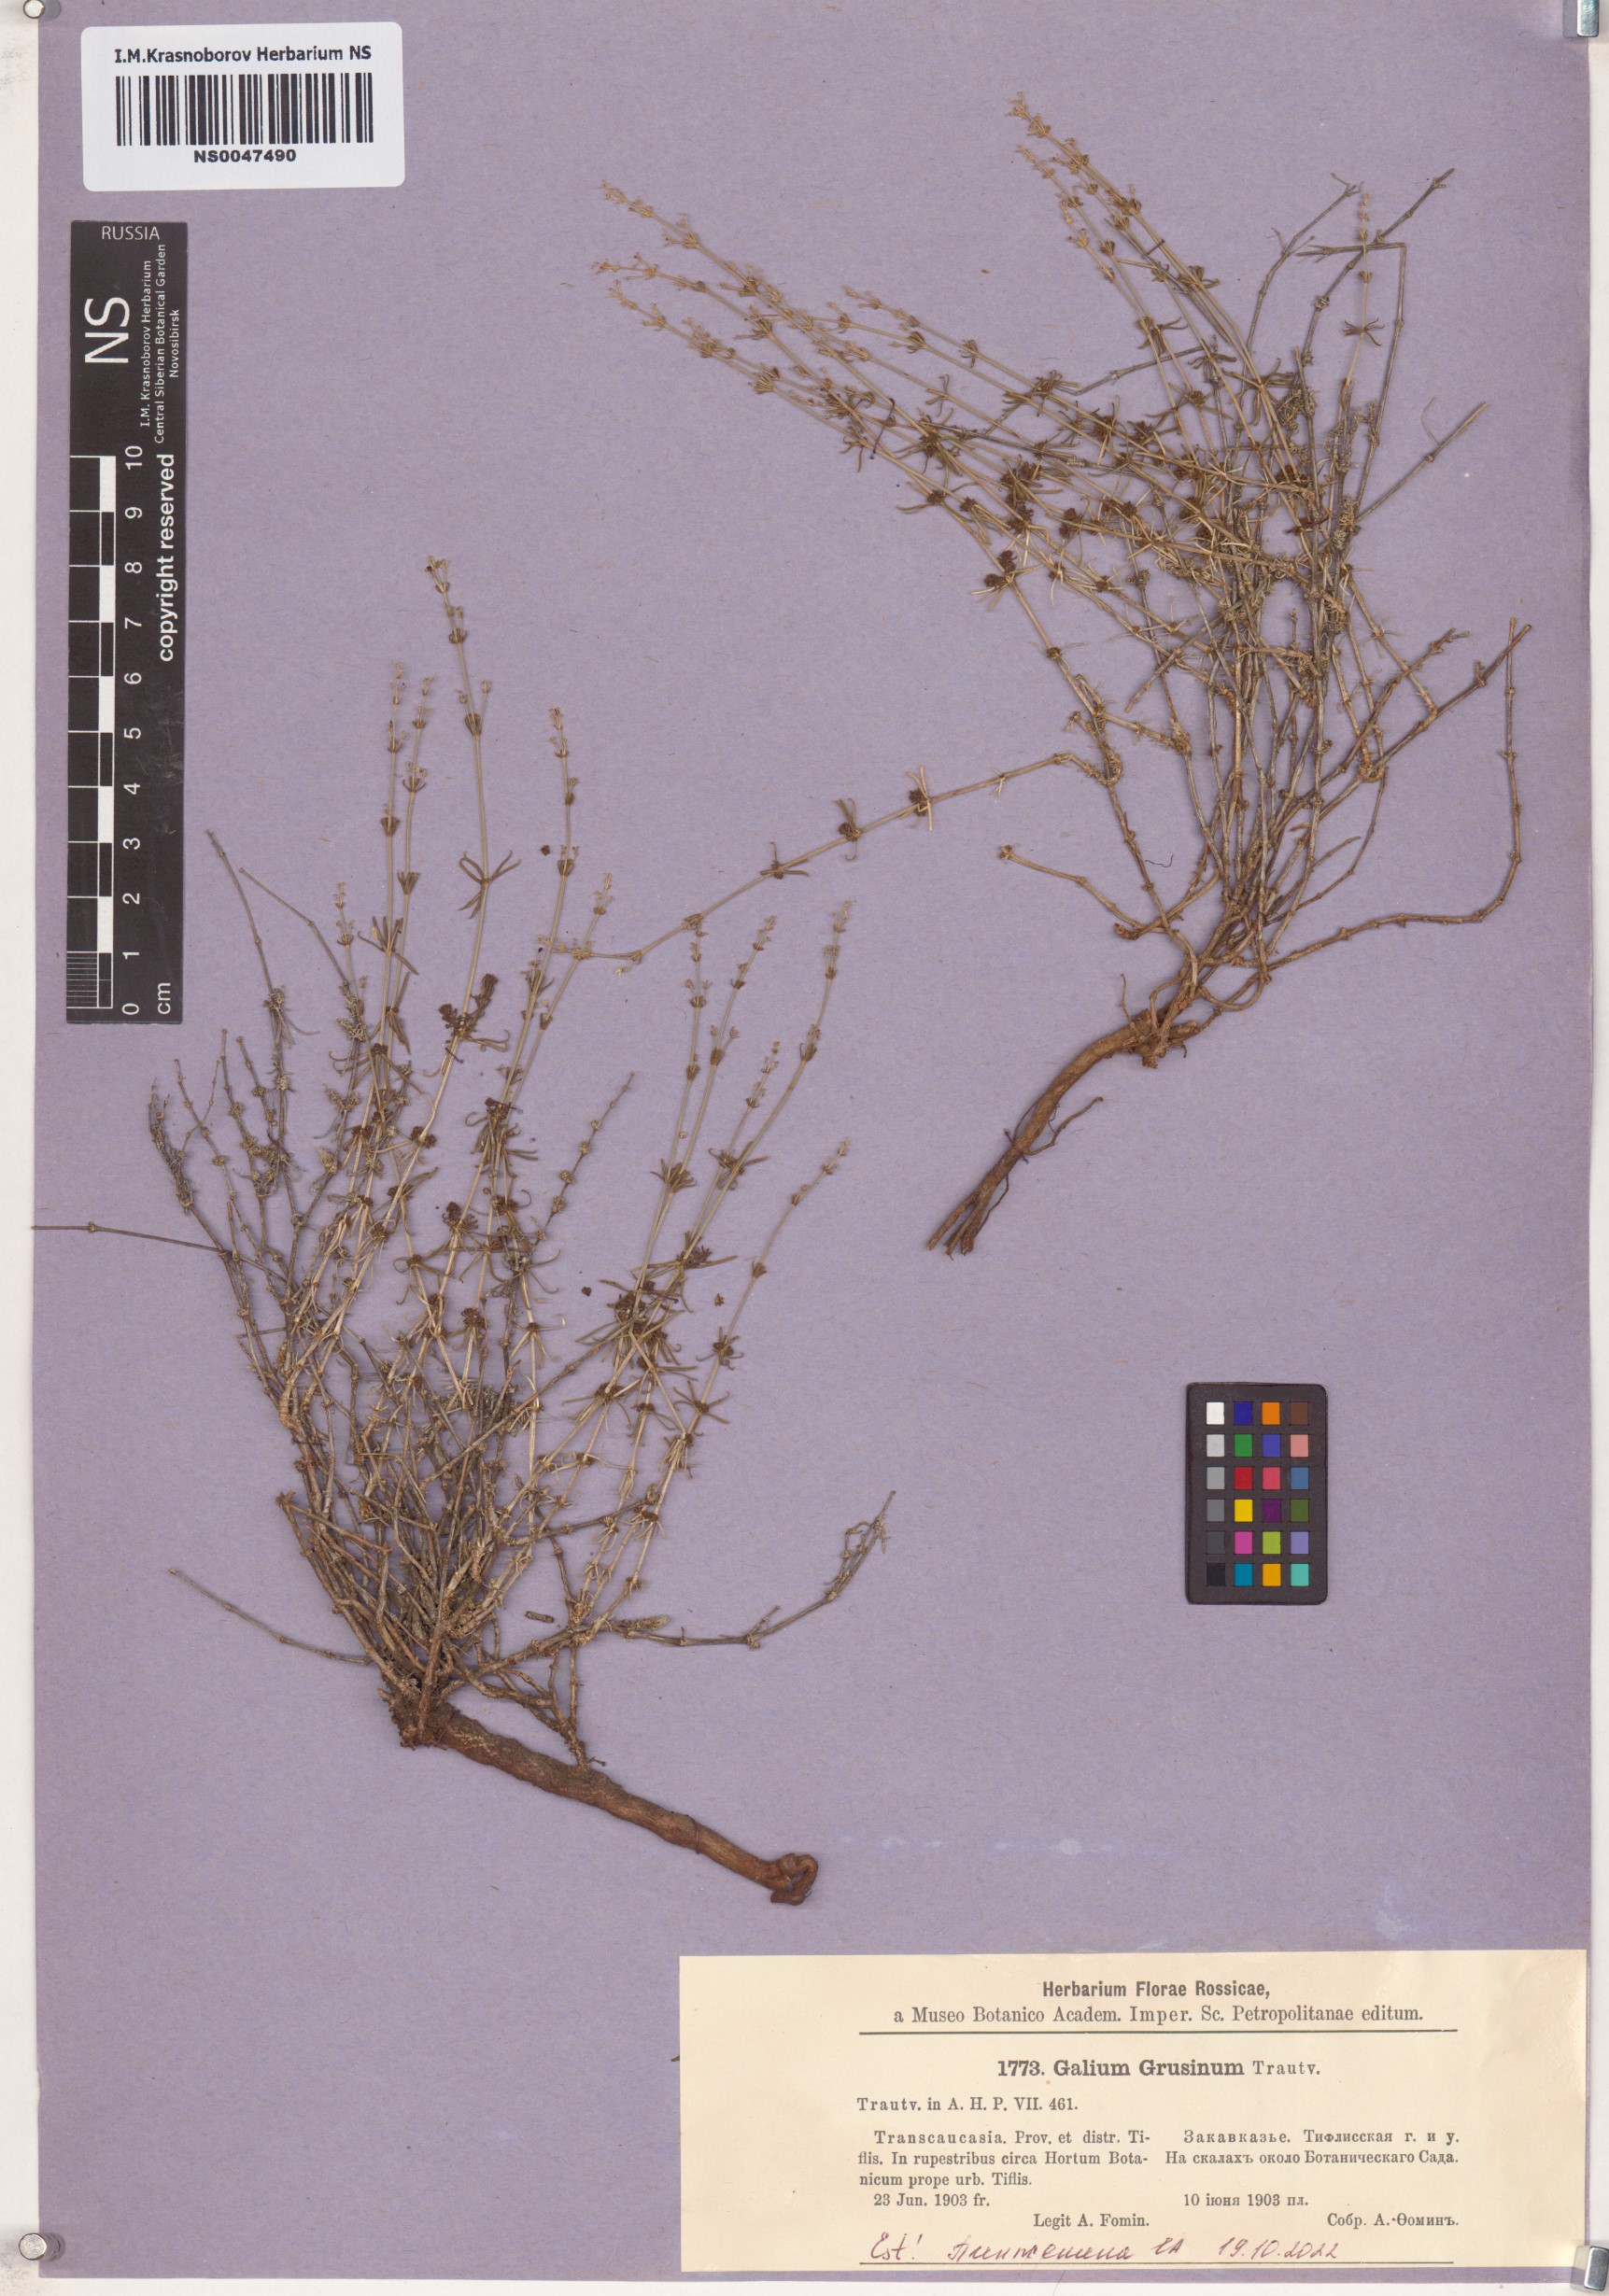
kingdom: Plantae
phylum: Tracheophyta
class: Magnoliopsida
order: Gentianales
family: Rubiaceae
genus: Galium
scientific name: Galium incanum
